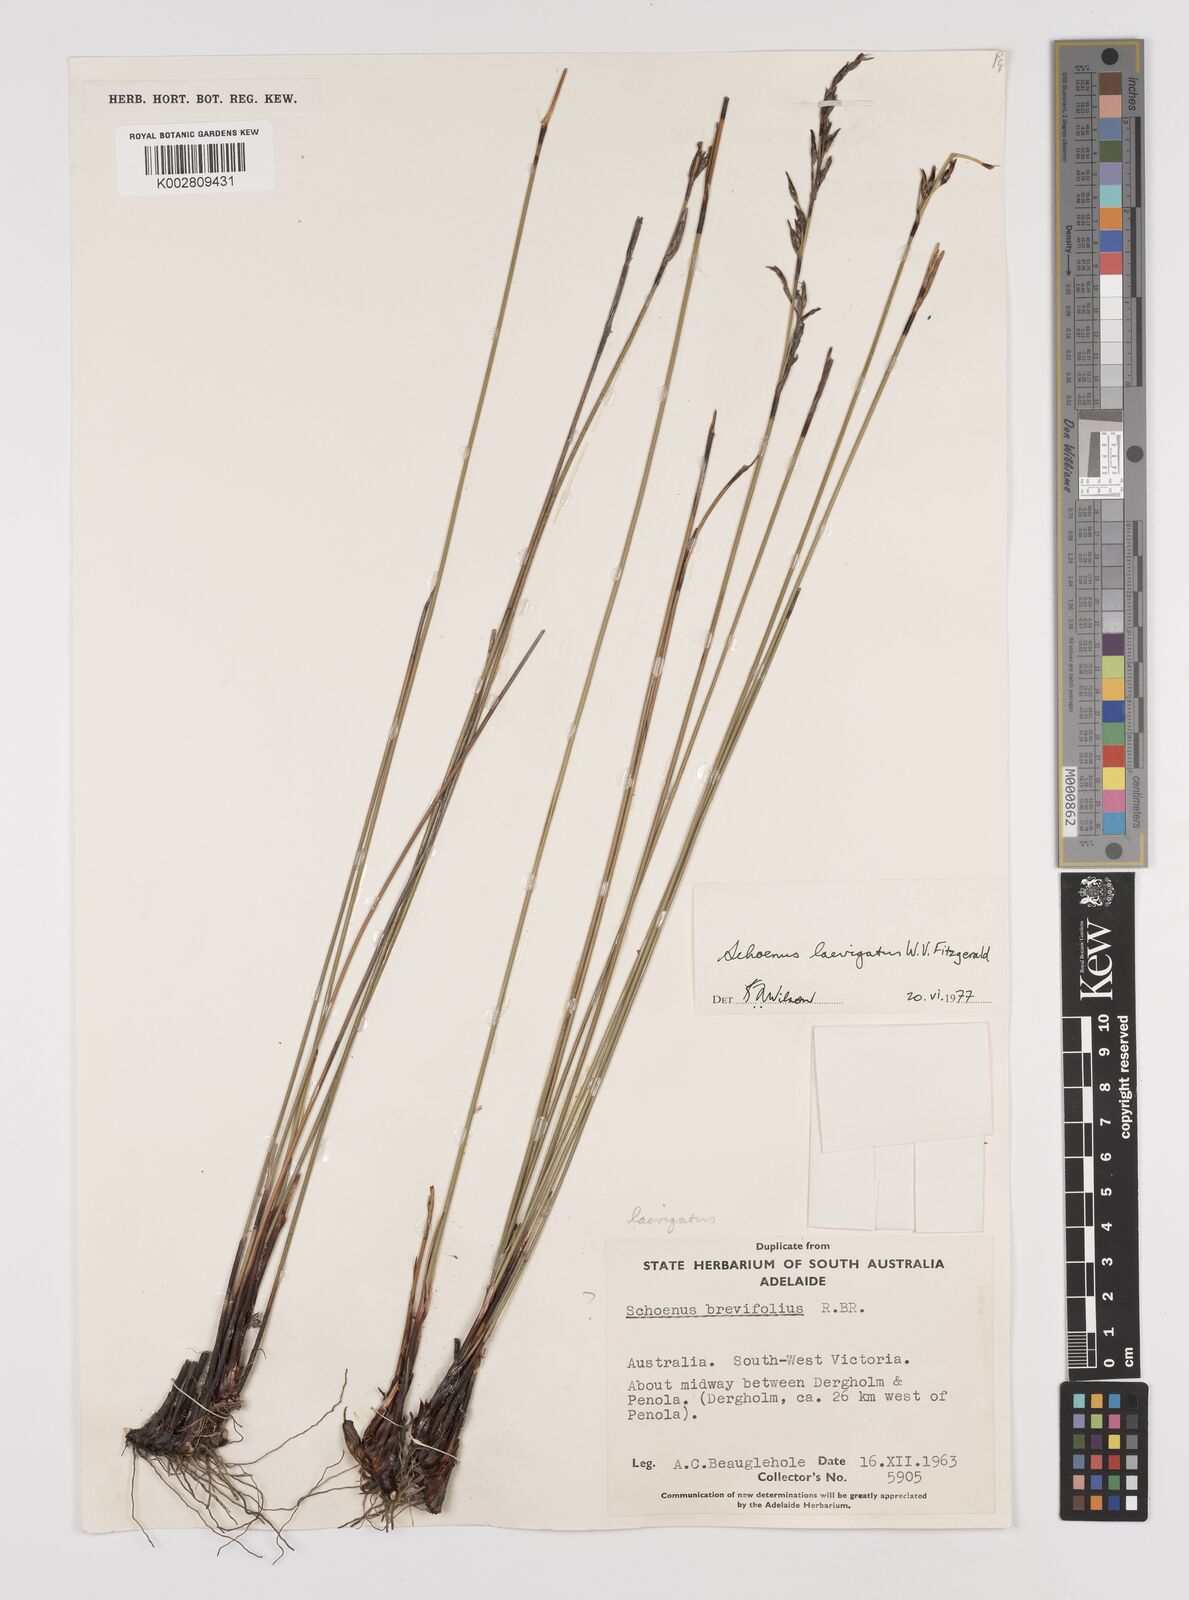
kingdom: Plantae
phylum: Tracheophyta
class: Liliopsida
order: Poales
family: Cyperaceae
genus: Schoenus
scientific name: Schoenus laevigatus
